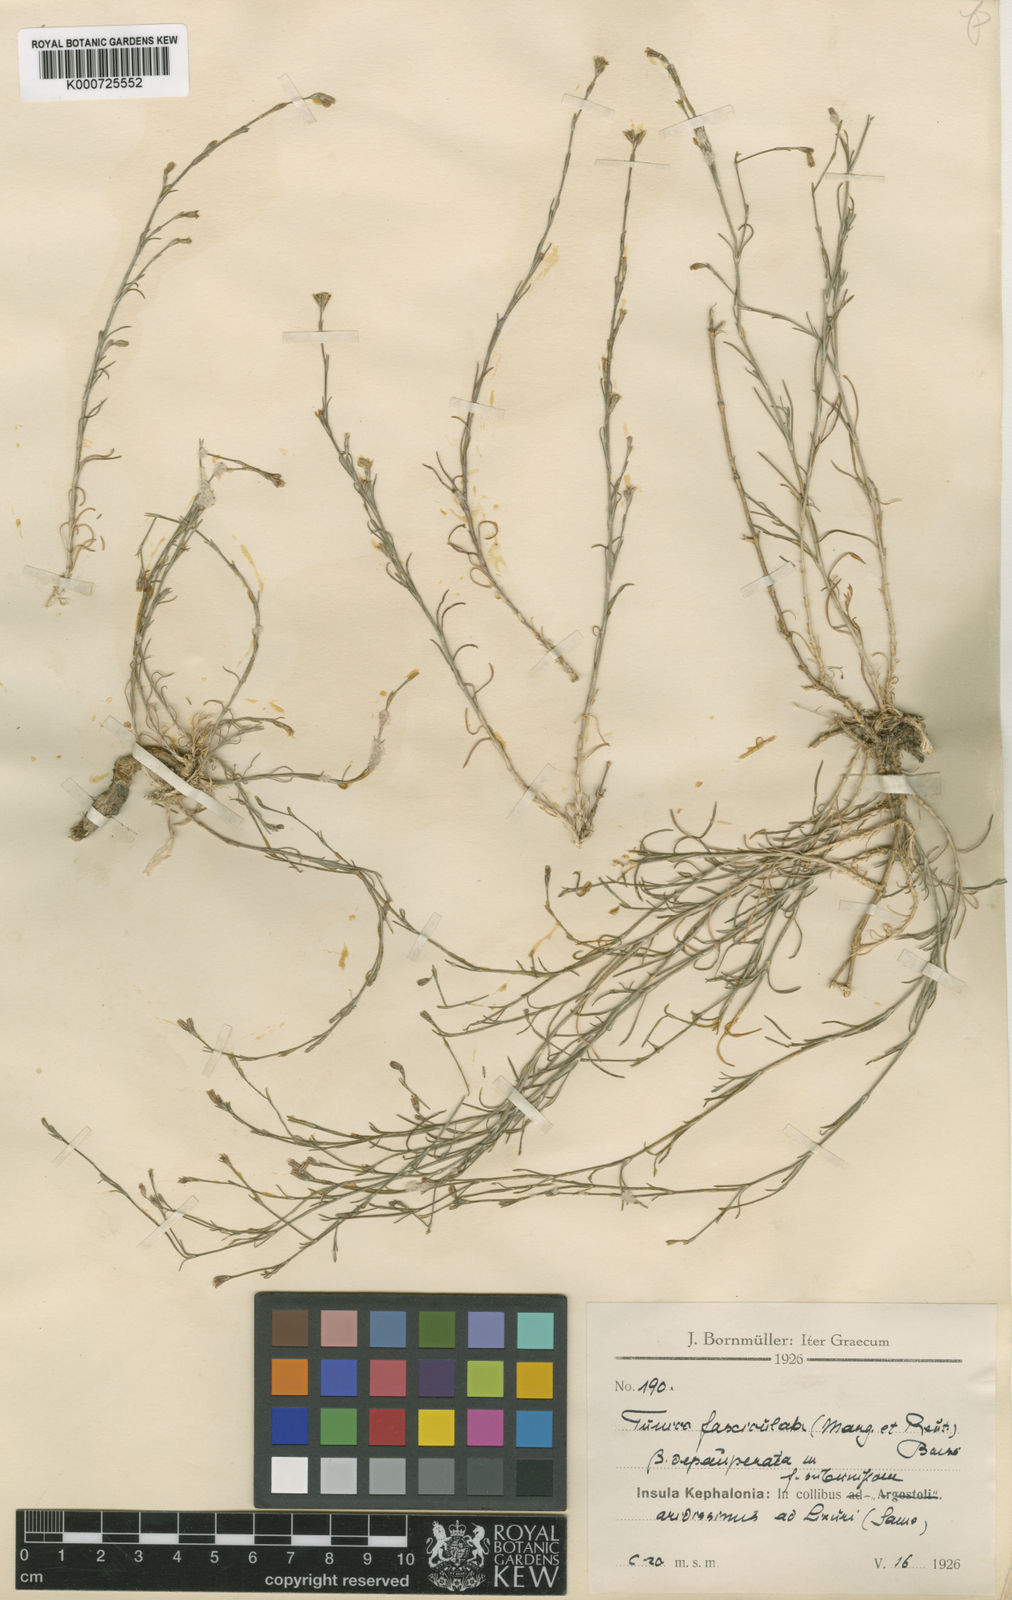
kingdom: Plantae
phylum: Tracheophyta
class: Magnoliopsida
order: Caryophyllales
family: Caryophyllaceae
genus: Petrorhagia
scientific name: Petrorhagia fasciculata
